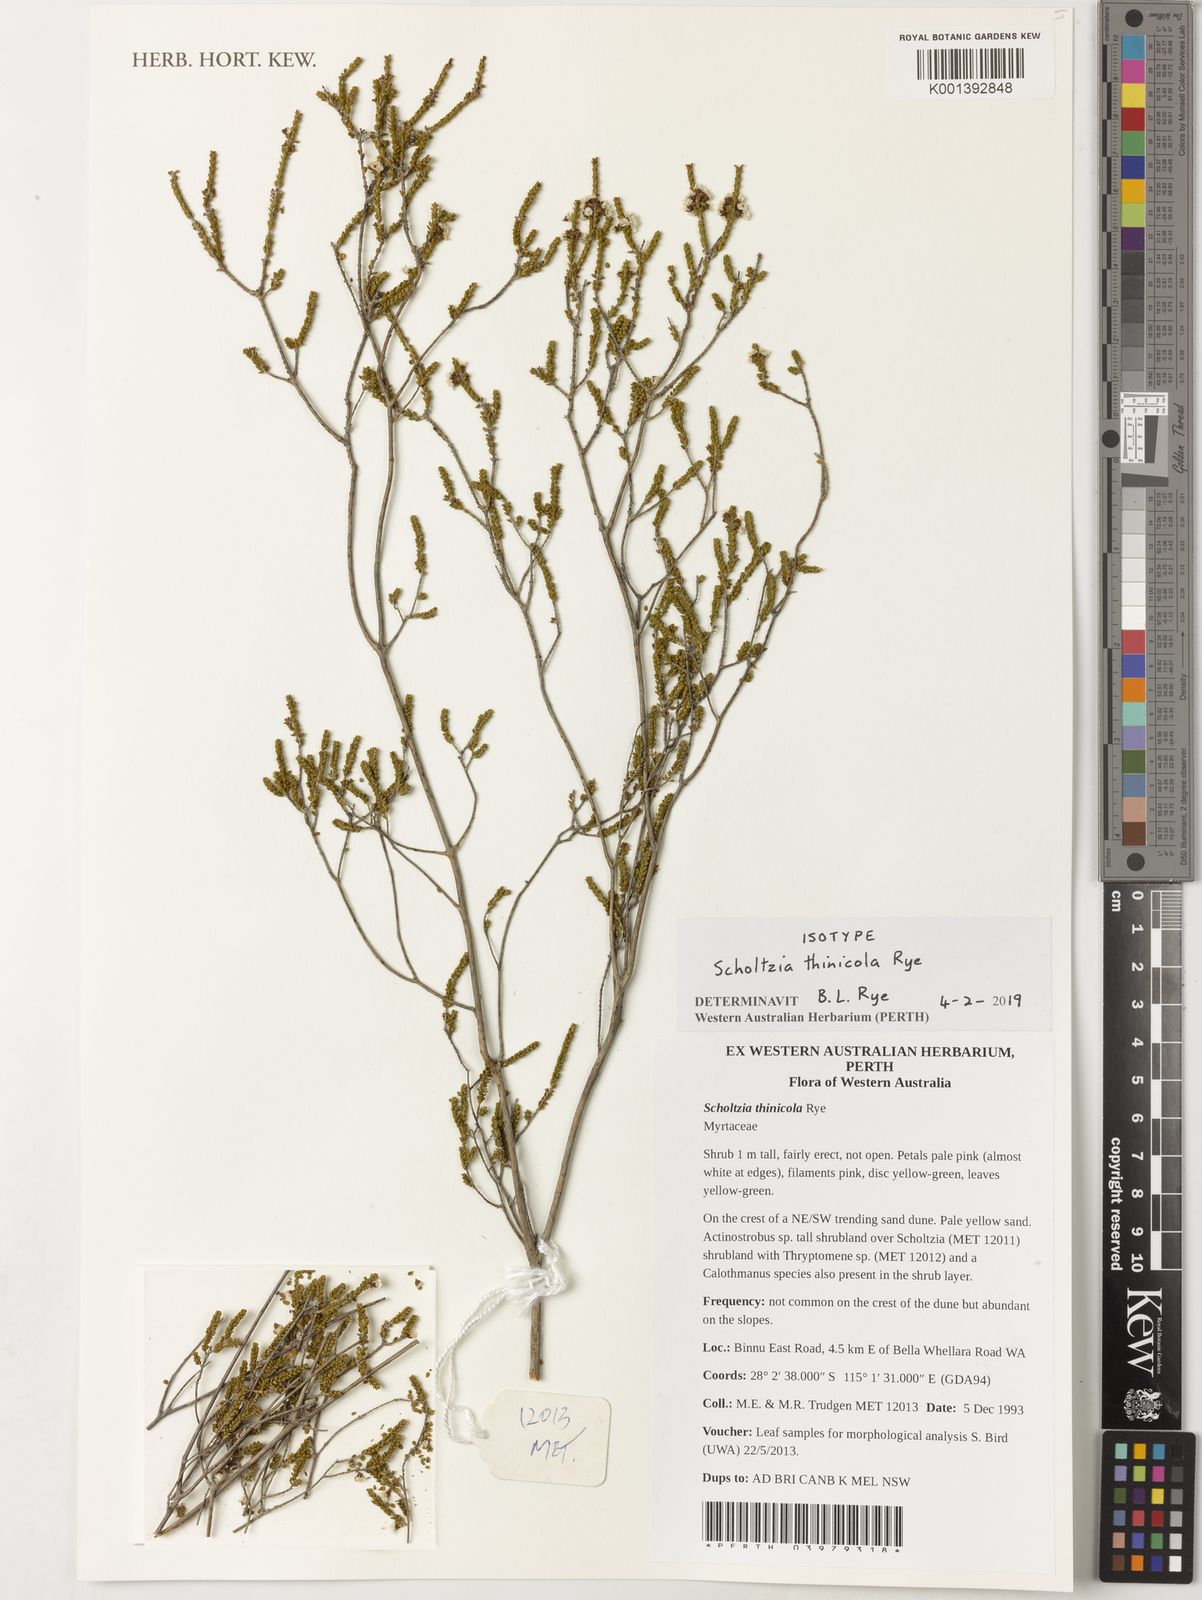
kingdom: Plantae
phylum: Tracheophyta
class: Magnoliopsida
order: Myrtales
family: Myrtaceae
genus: Scholtzia
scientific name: Scholtzia
